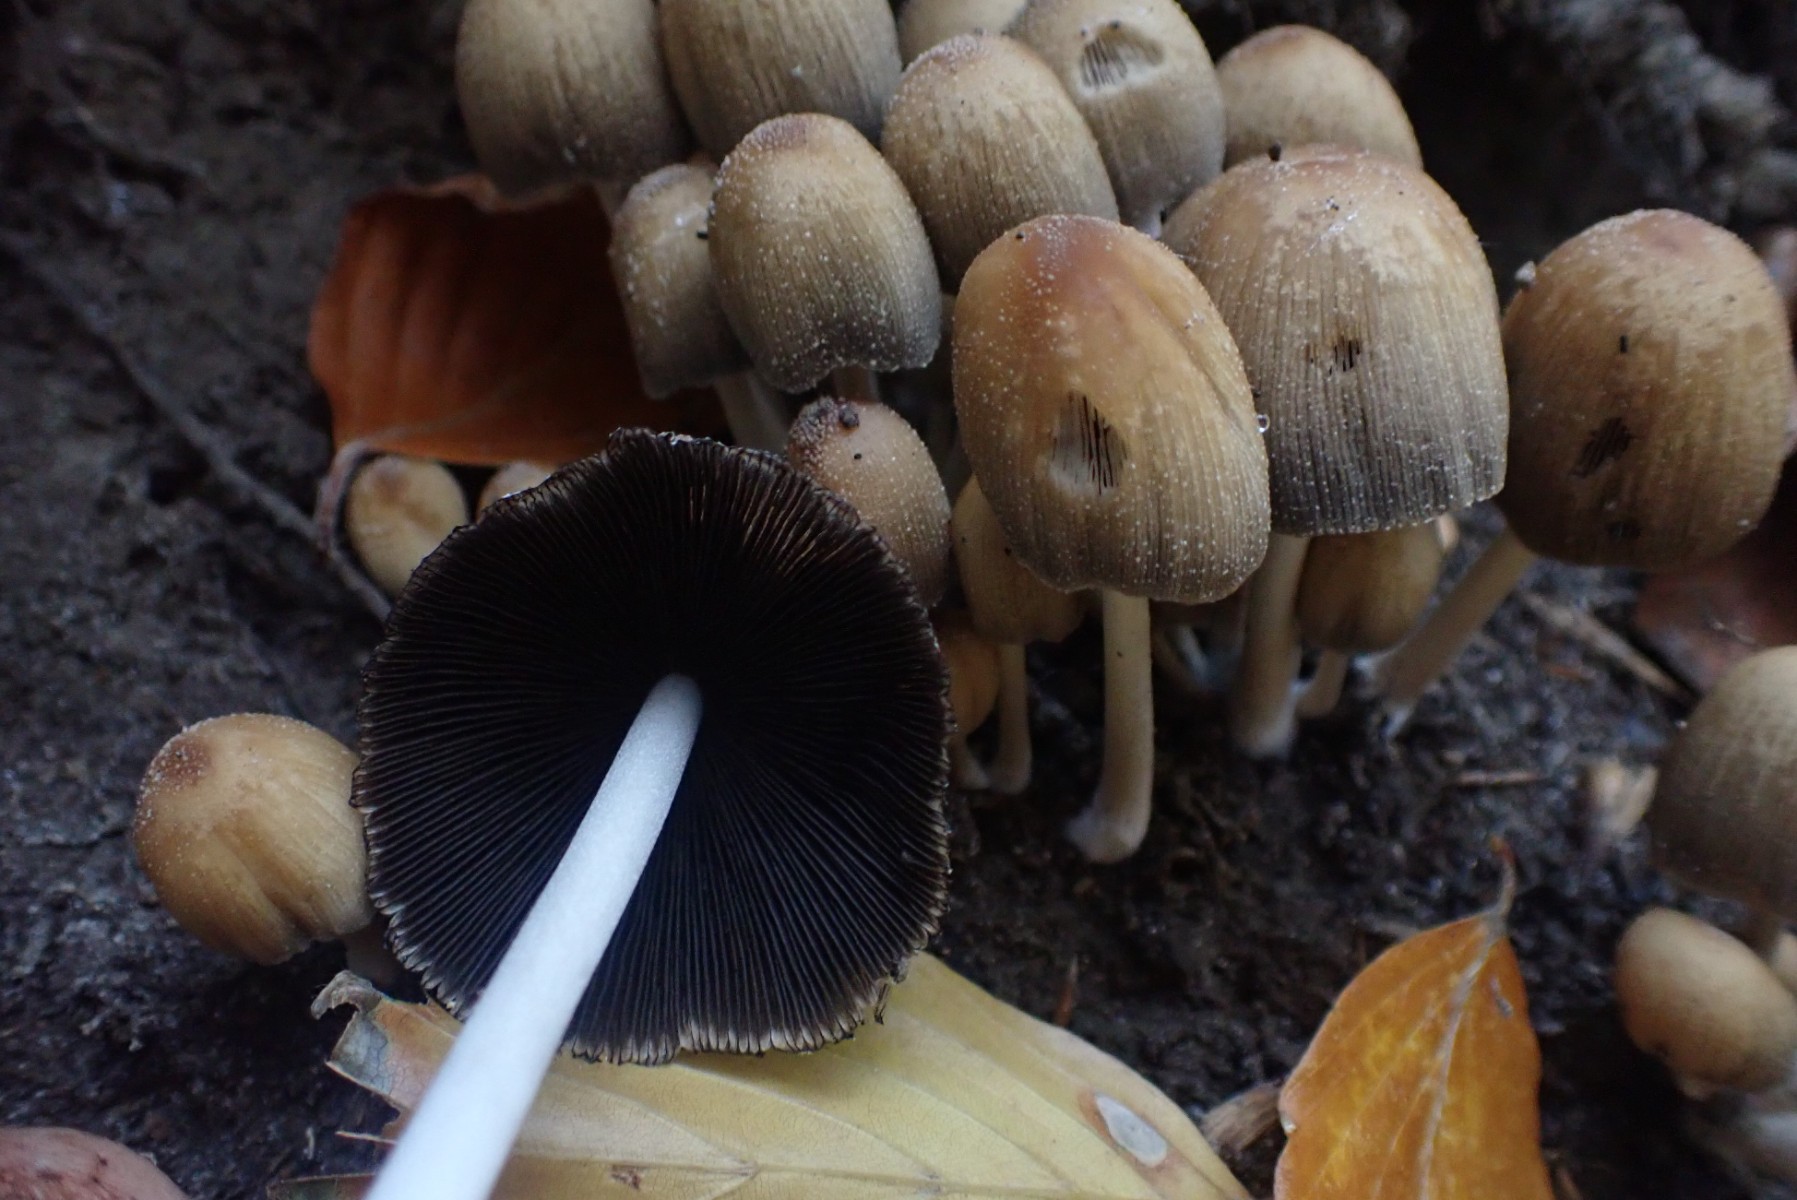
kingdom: Fungi
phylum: Basidiomycota
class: Agaricomycetes
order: Agaricales
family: Psathyrellaceae
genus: Coprinellus
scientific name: Coprinellus micaceus
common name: glimmer-blækhat
